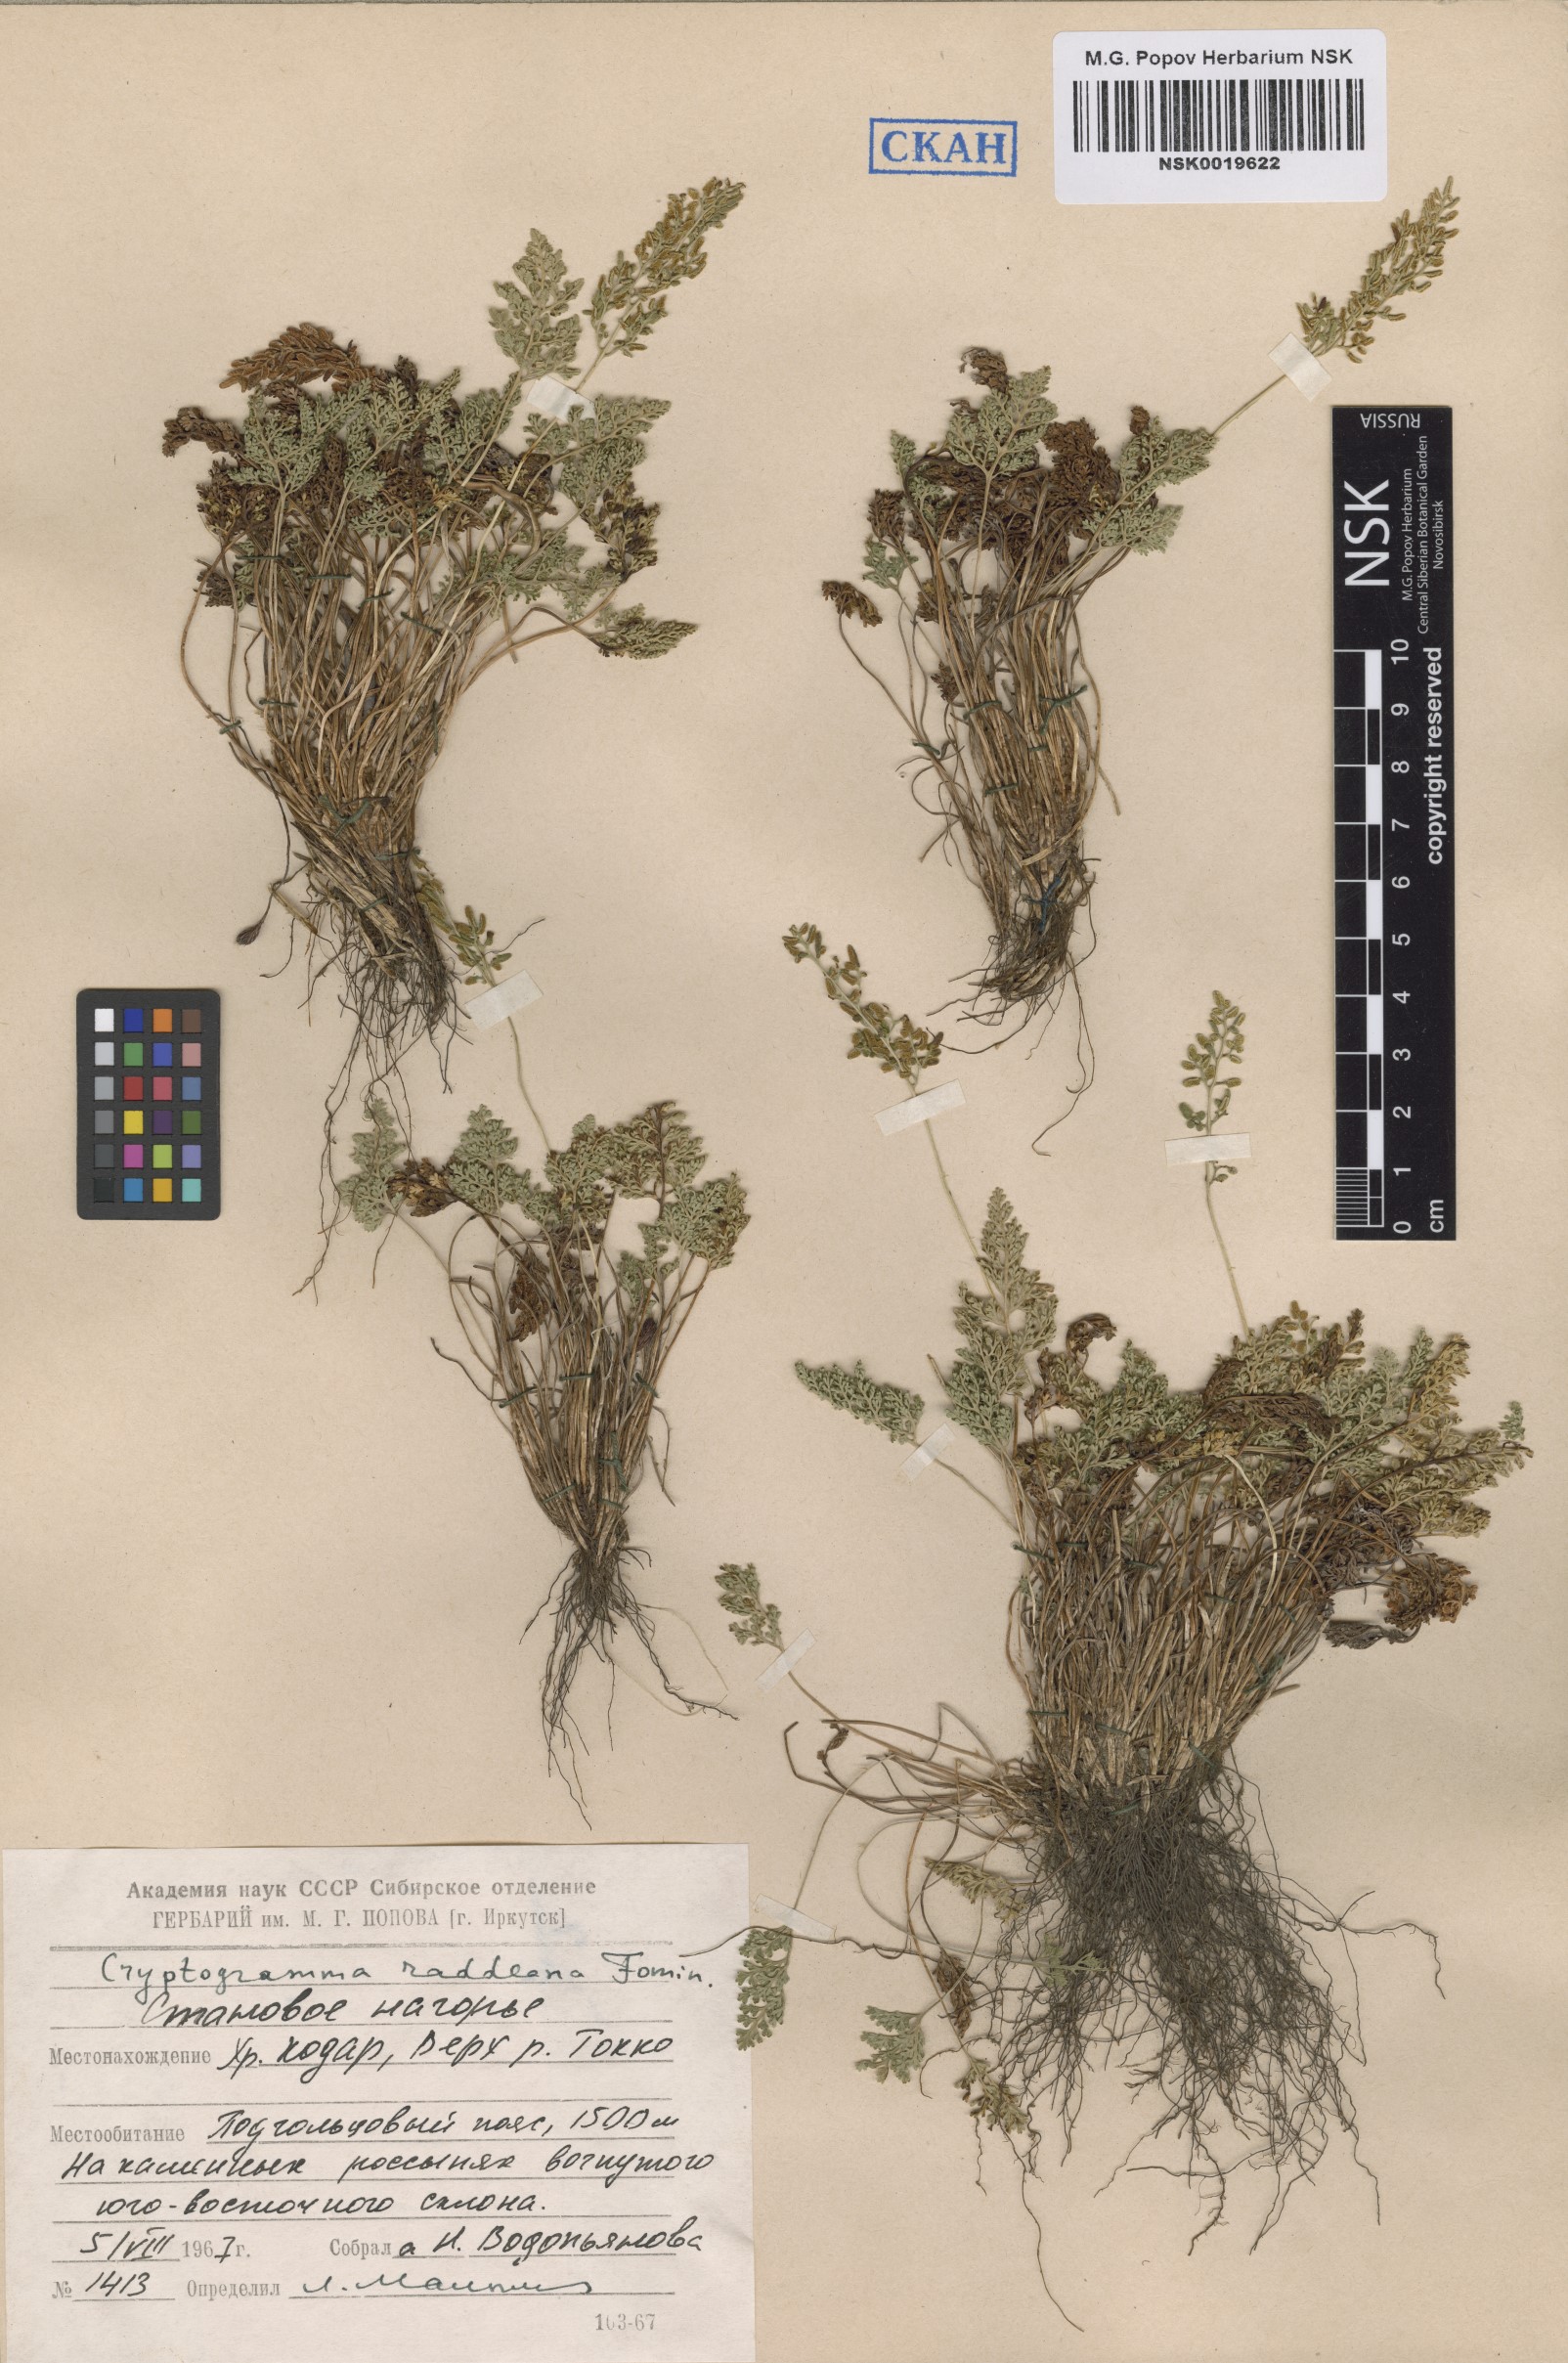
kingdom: Plantae
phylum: Tracheophyta
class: Polypodiopsida
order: Polypodiales
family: Pteridaceae
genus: Cryptogramma
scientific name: Cryptogramma brunoniana
